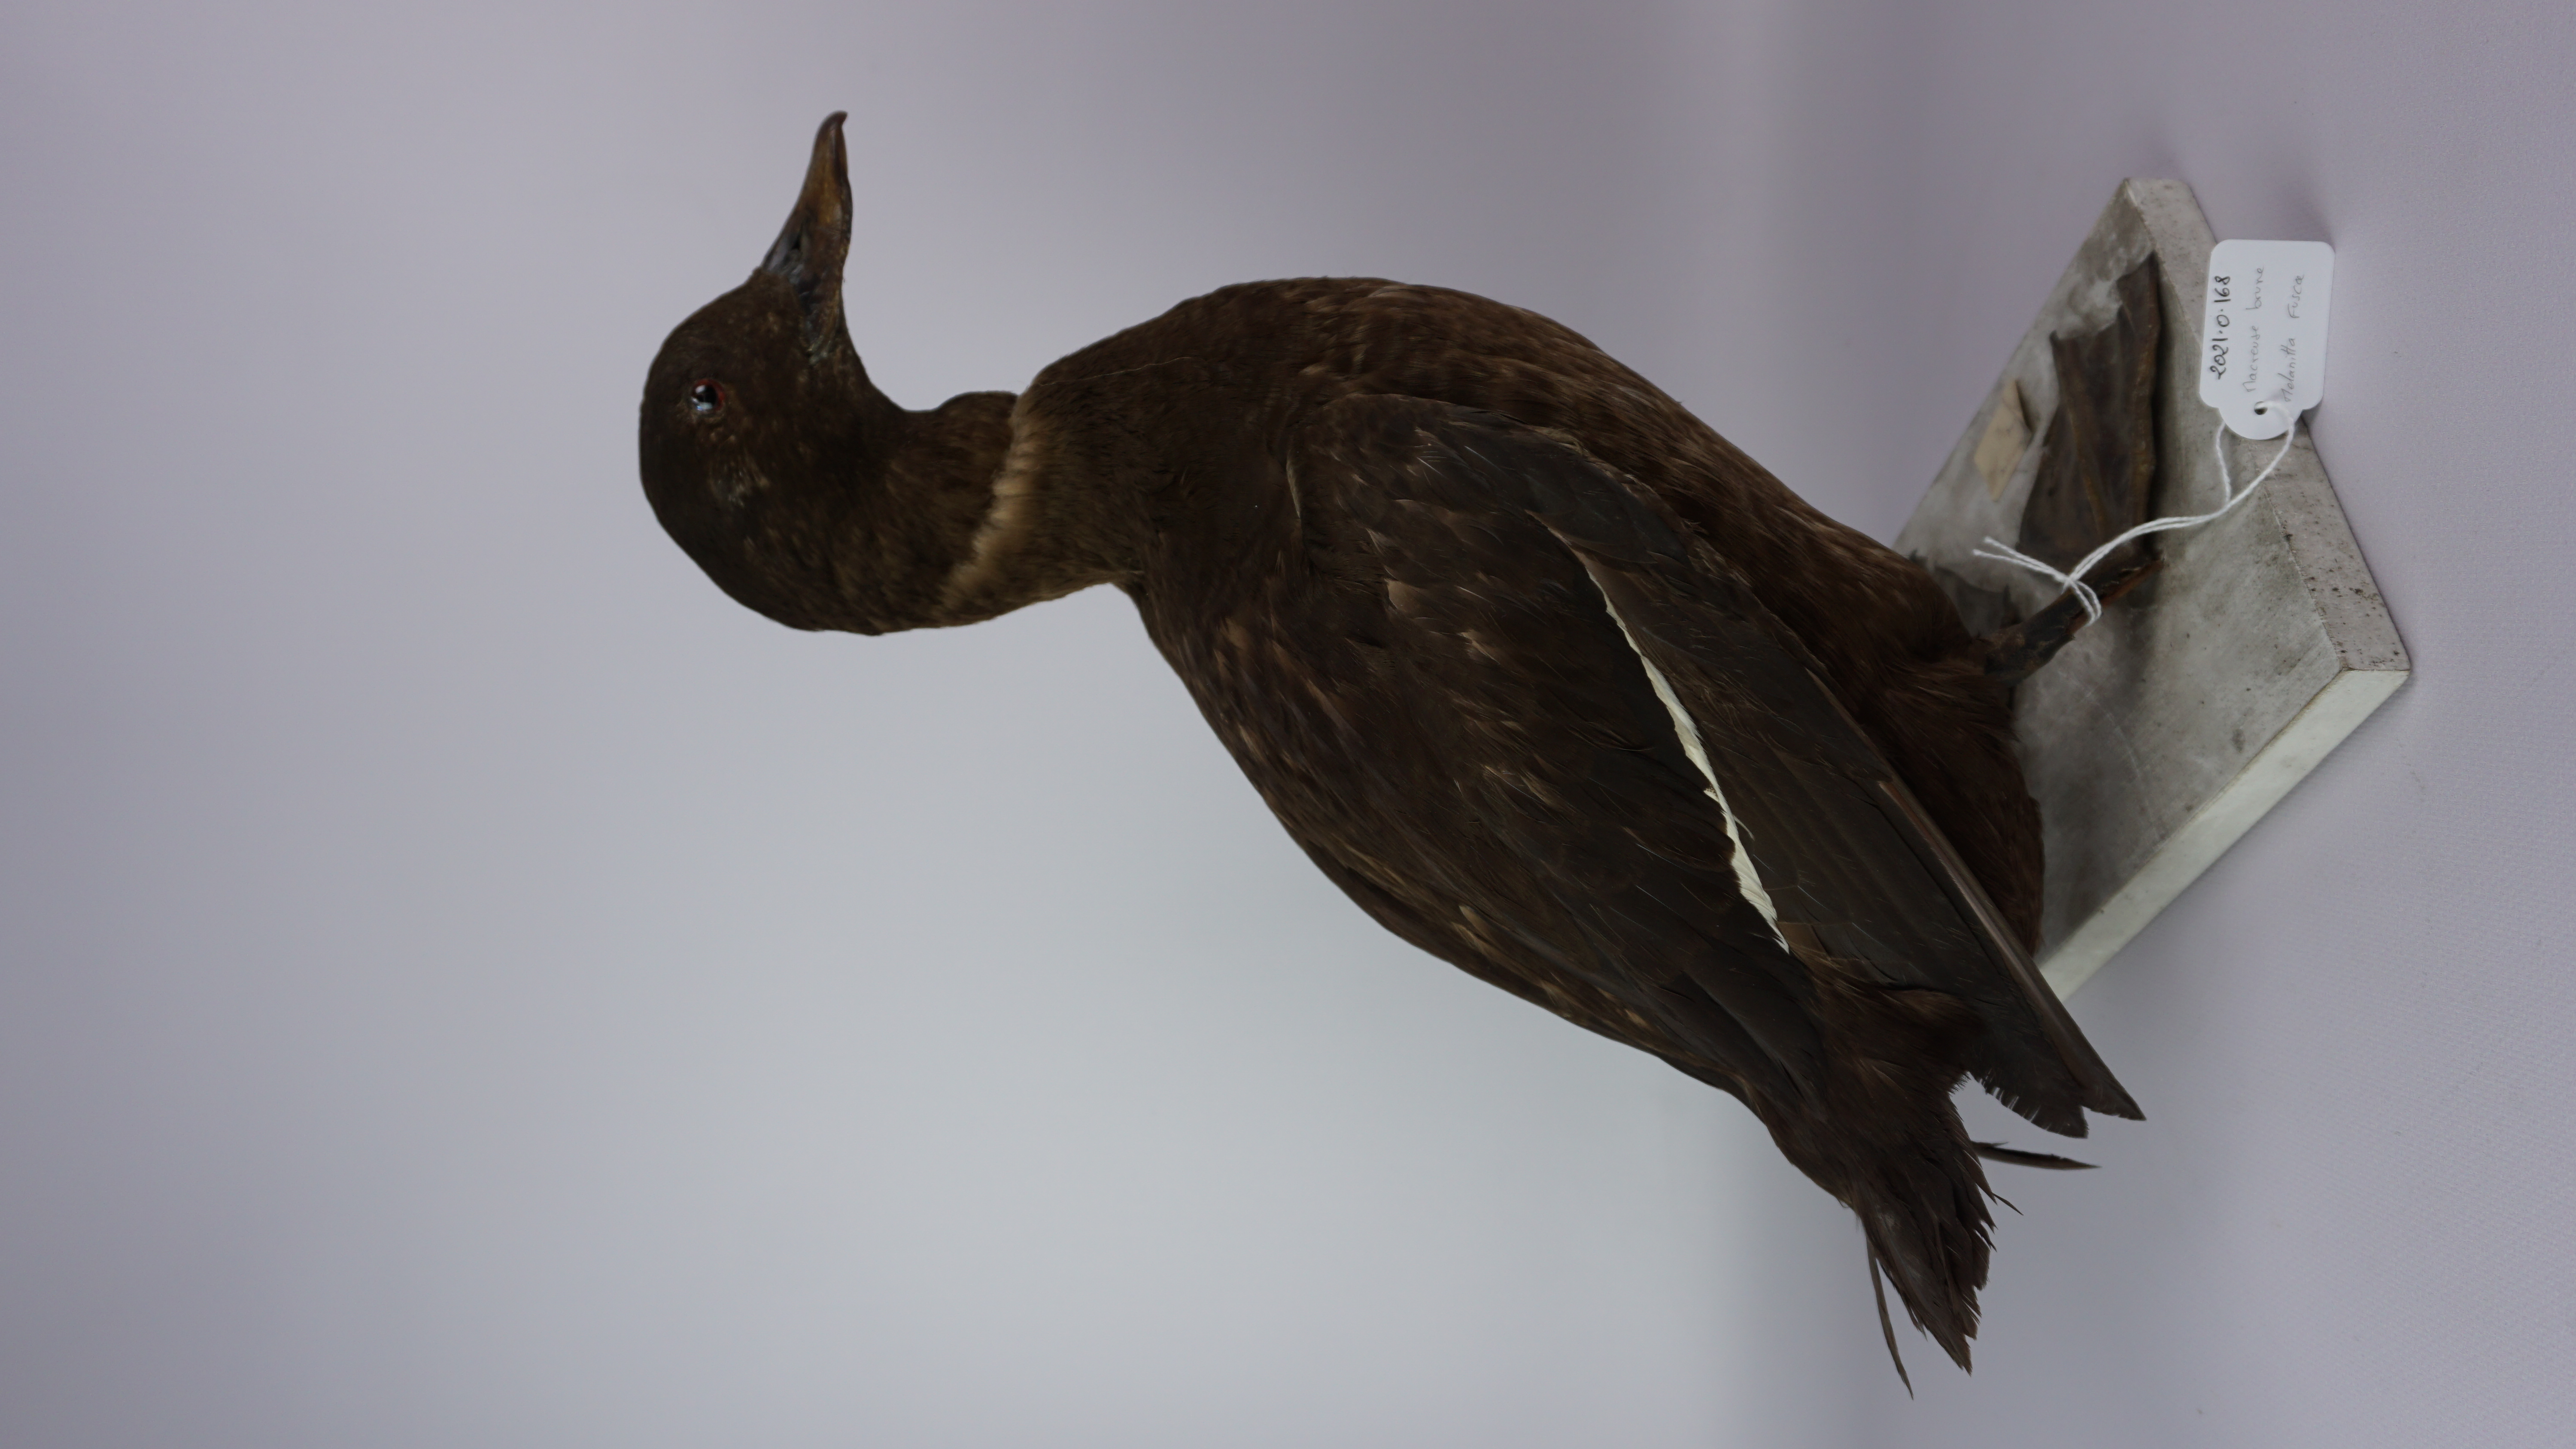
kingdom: Animalia
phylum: Chordata
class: Aves
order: Anseriformes
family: Anatidae
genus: Melanitta
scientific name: Melanitta fusca
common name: Velvet scoter
